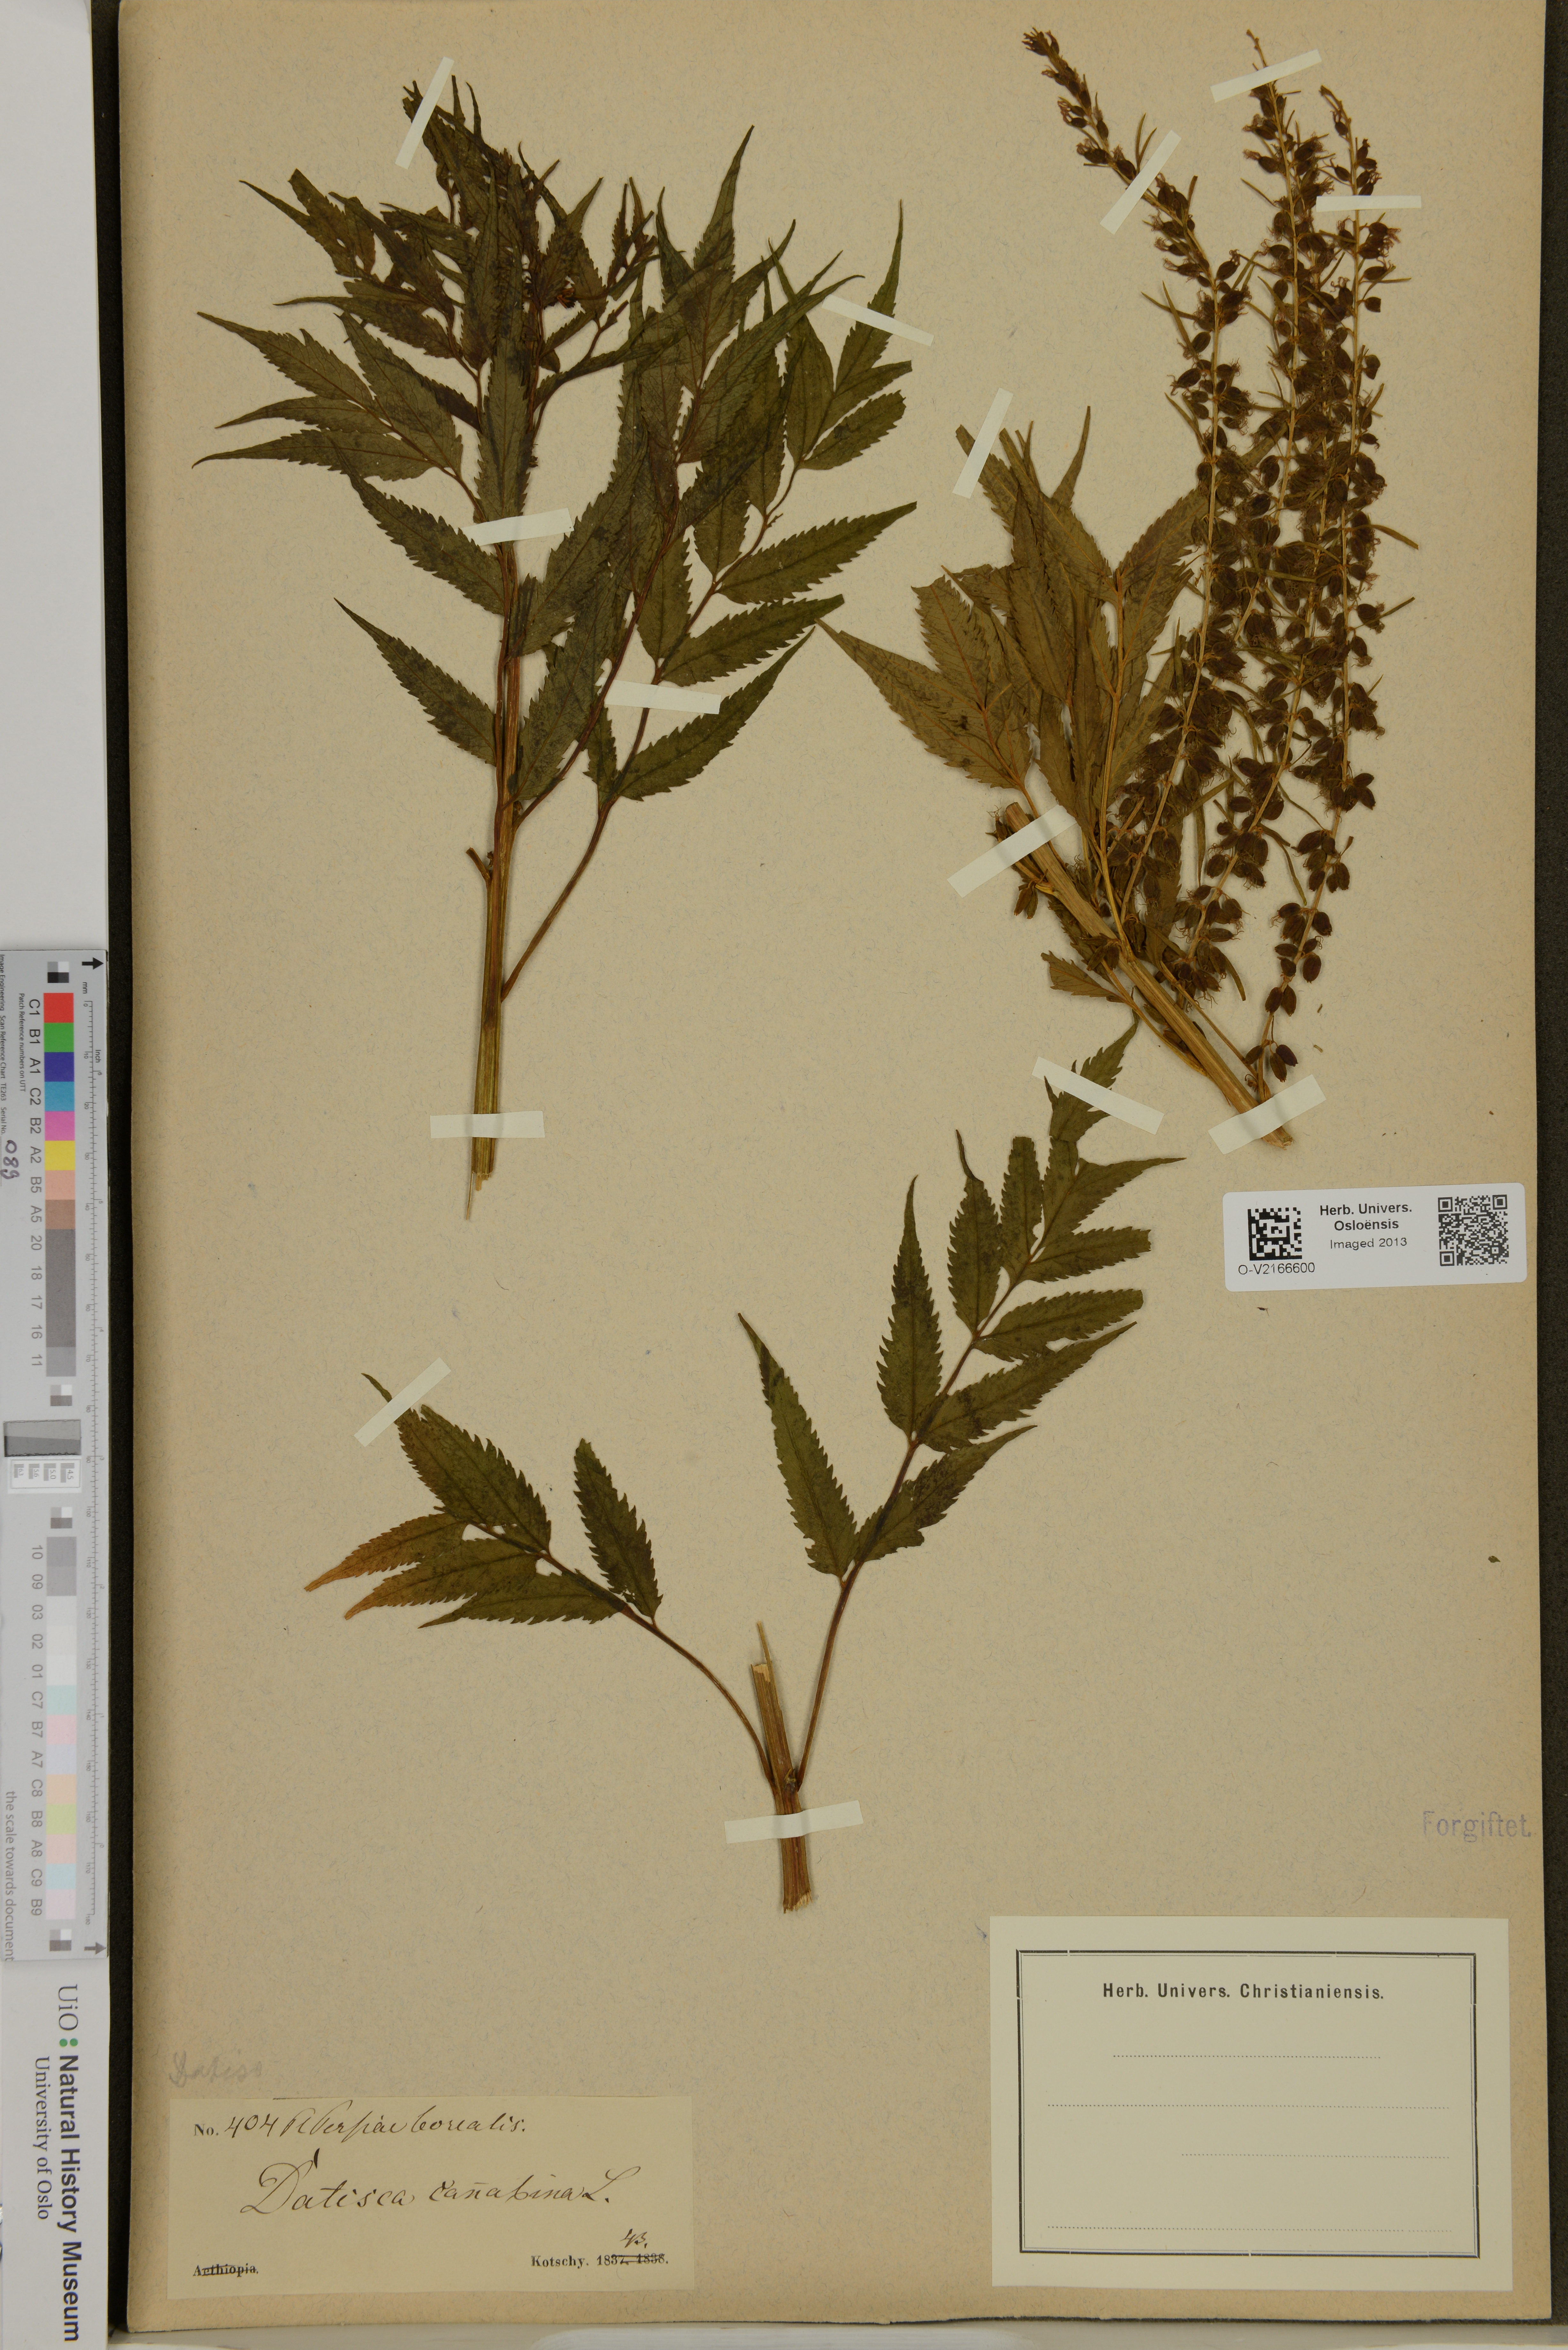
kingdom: Plantae
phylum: Tracheophyta
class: Magnoliopsida
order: Cucurbitales
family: Datiscaceae
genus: Datisca
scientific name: Datisca cannabina
